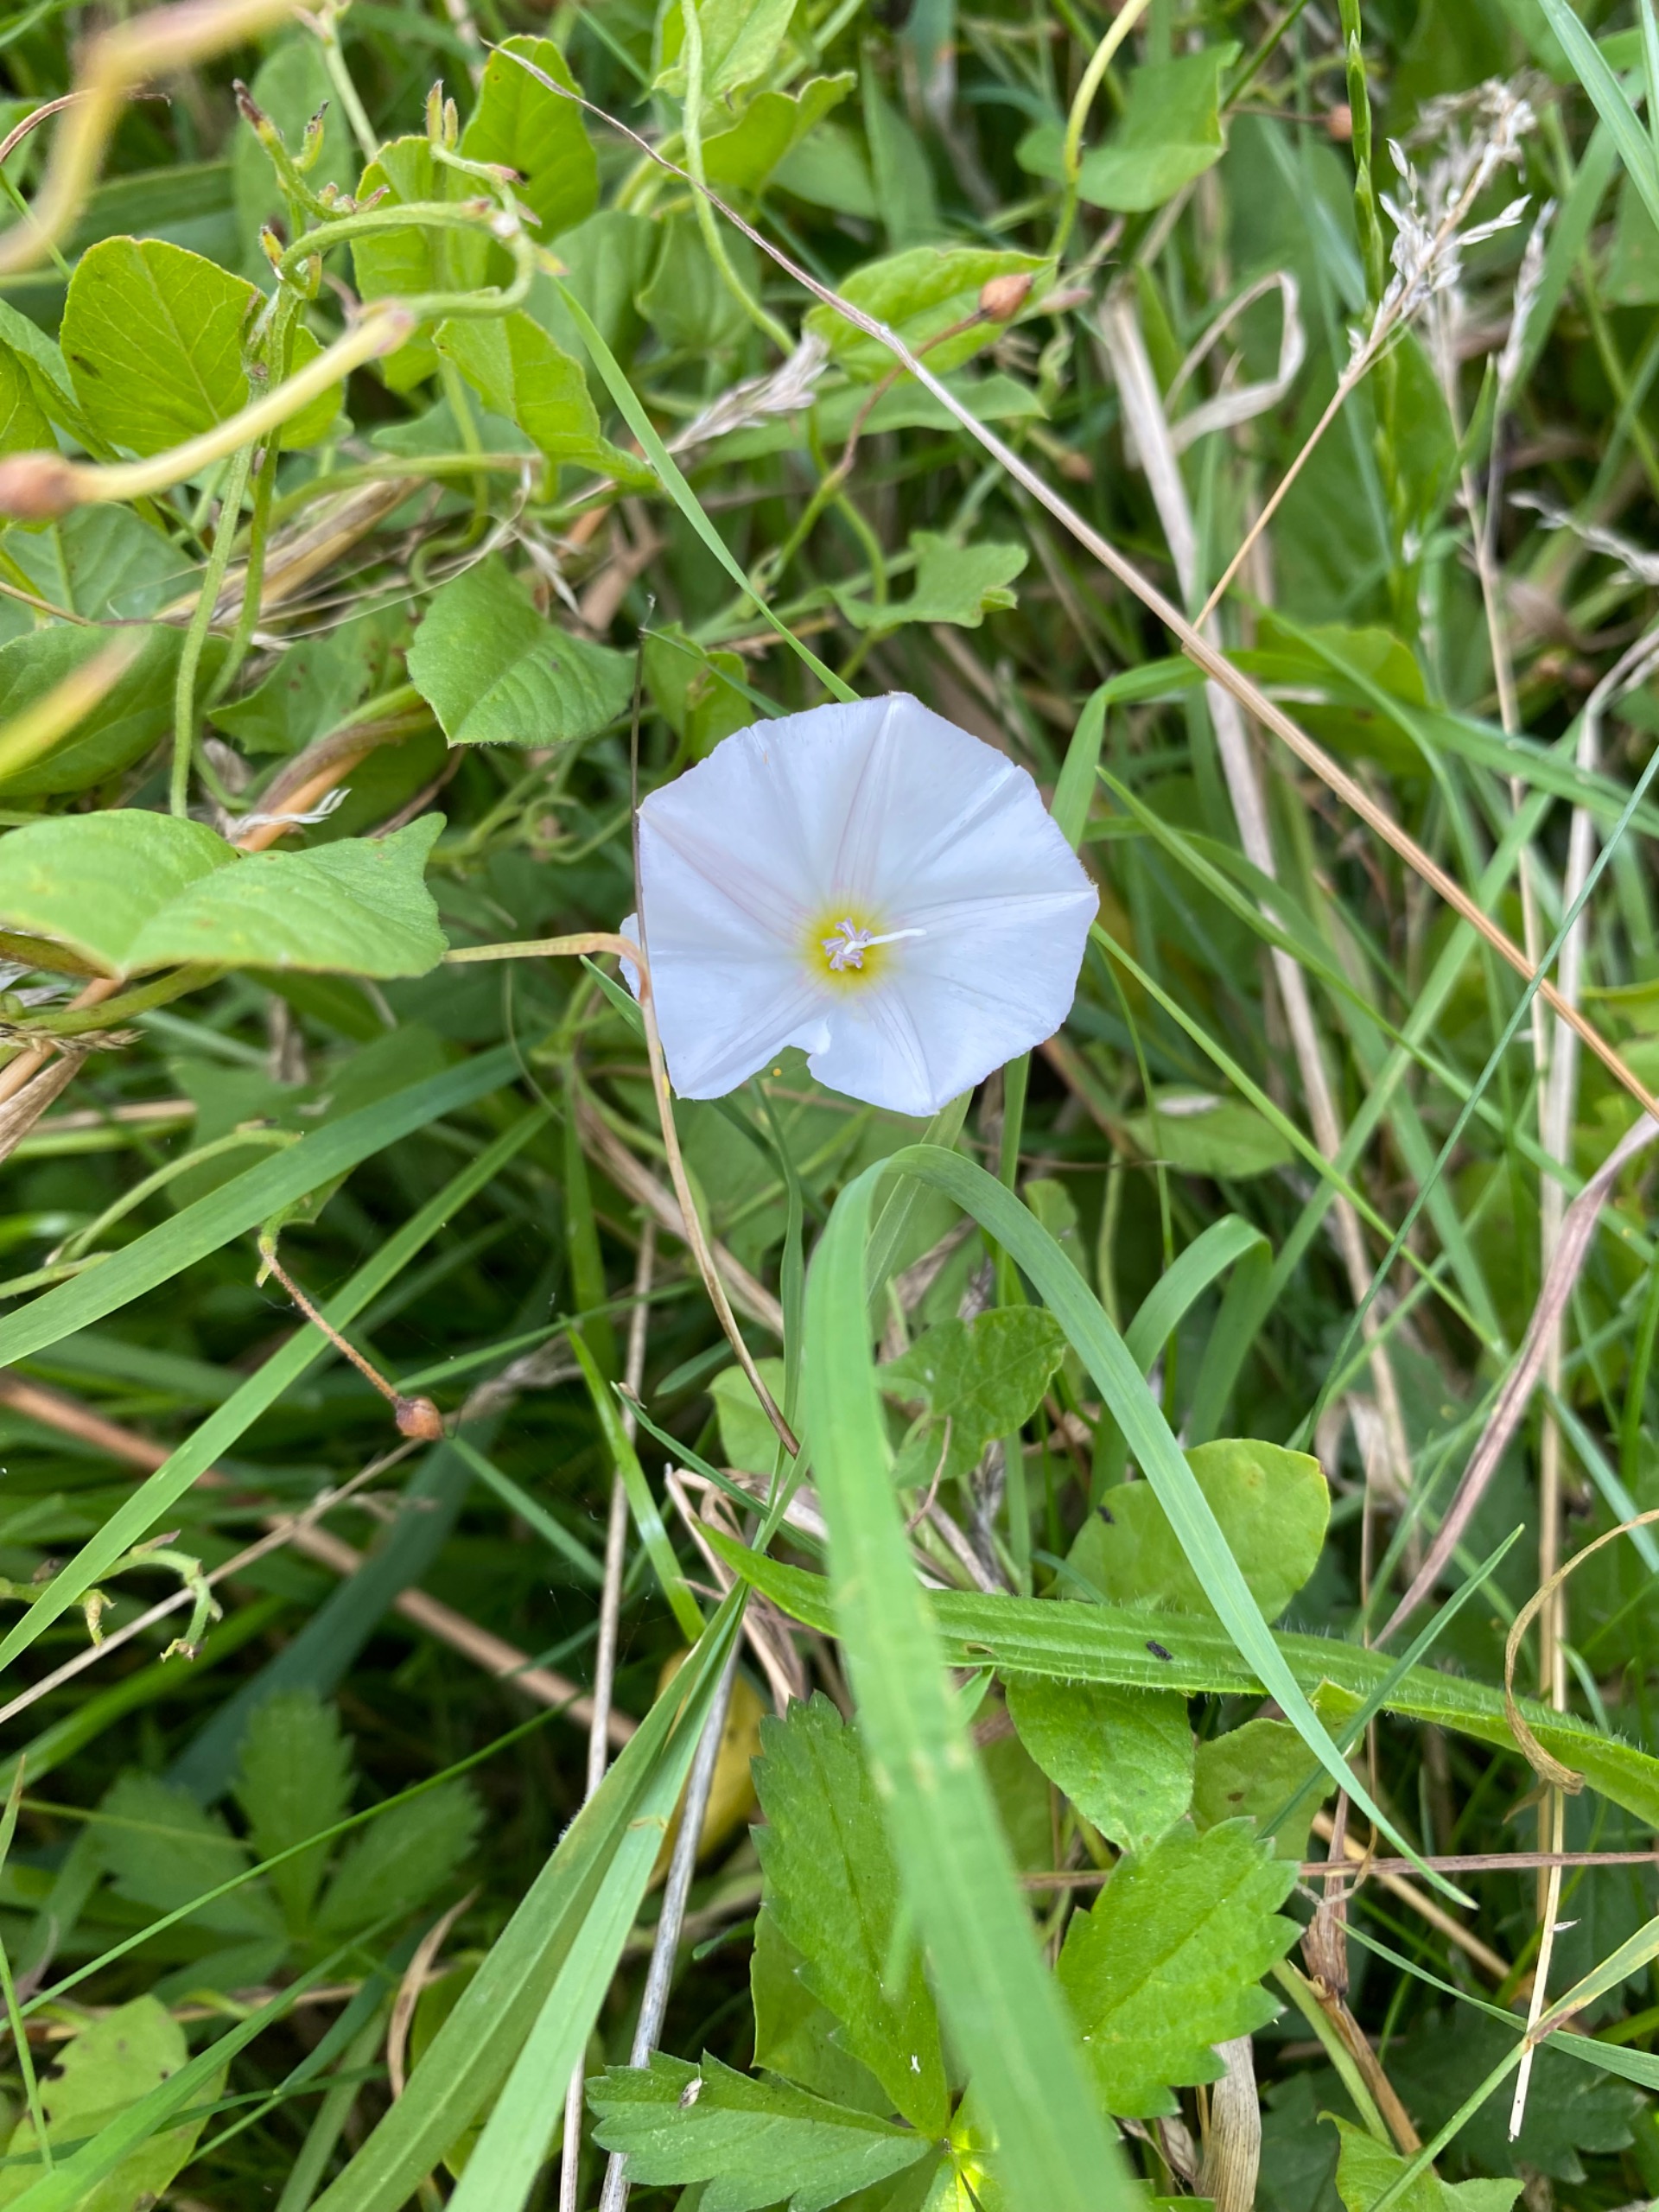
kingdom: Plantae
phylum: Tracheophyta
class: Magnoliopsida
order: Solanales
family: Convolvulaceae
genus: Convolvulus
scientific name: Convolvulus arvensis
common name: Ager-snerle
